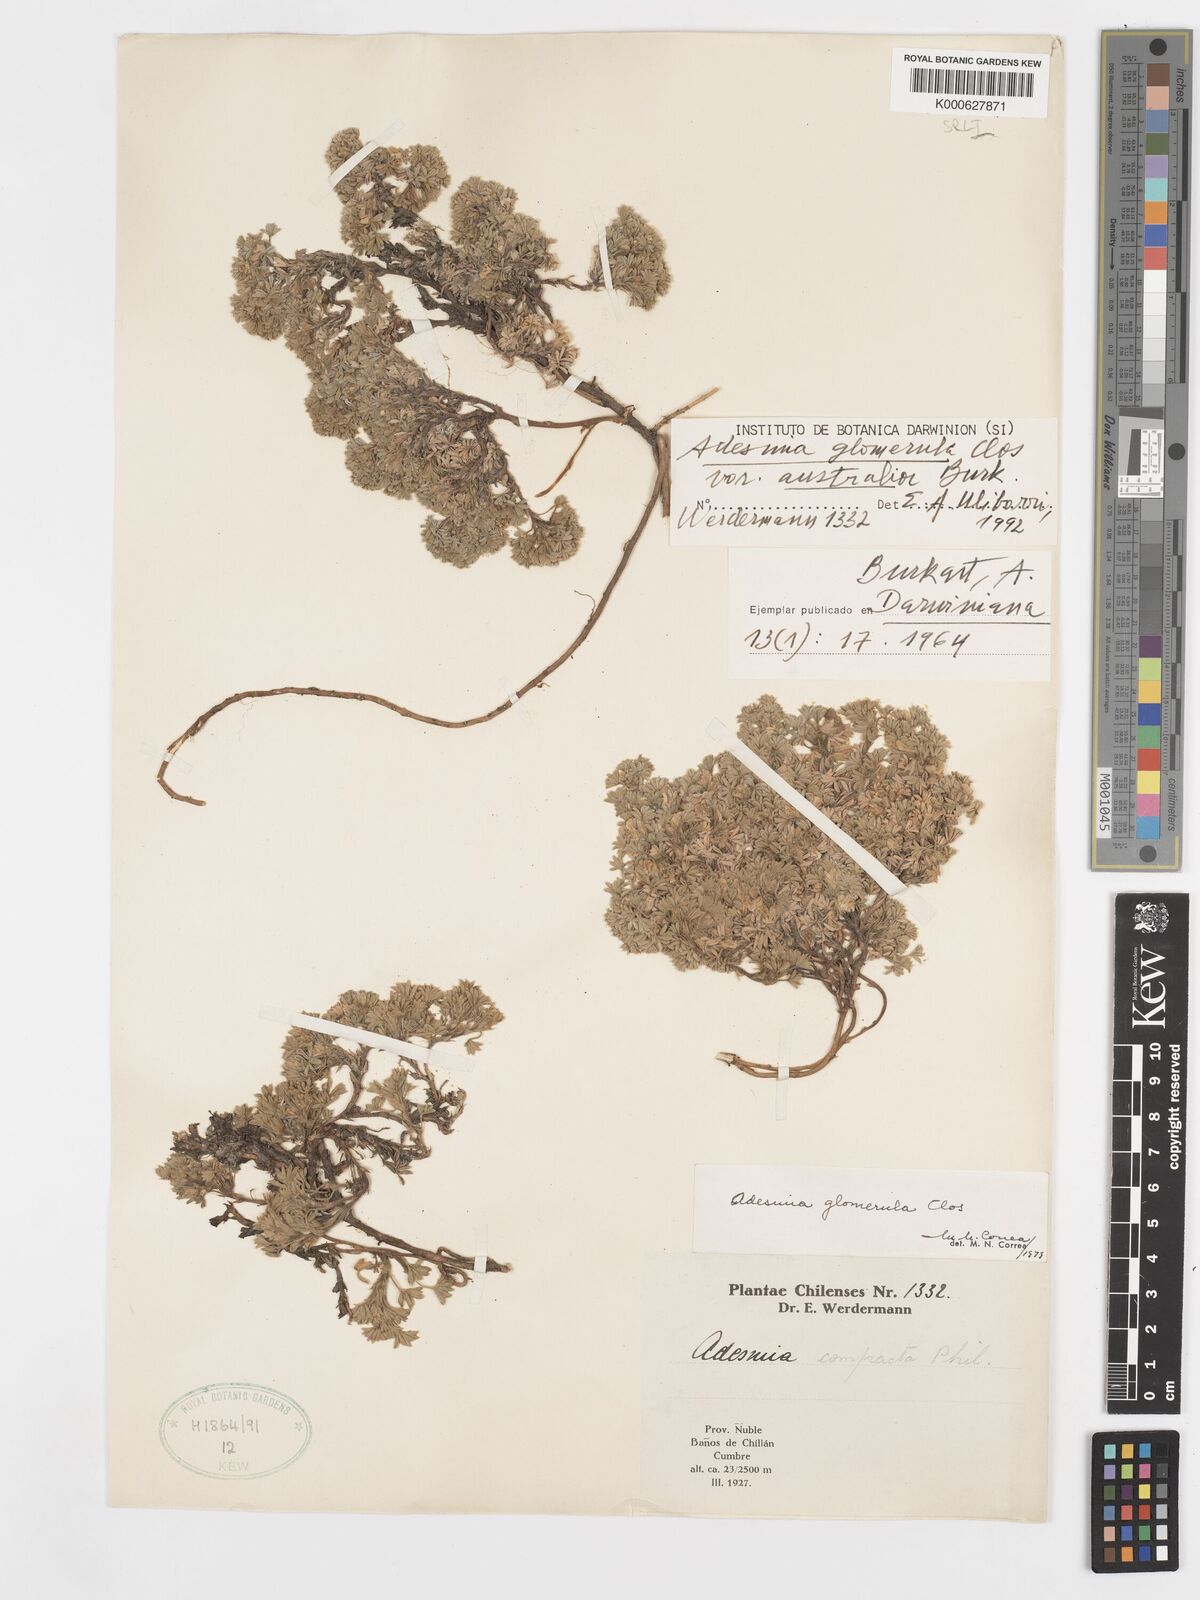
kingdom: Plantae
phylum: Tracheophyta
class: Magnoliopsida
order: Fabales
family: Fabaceae
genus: Adesmia
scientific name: Adesmia glomerula
